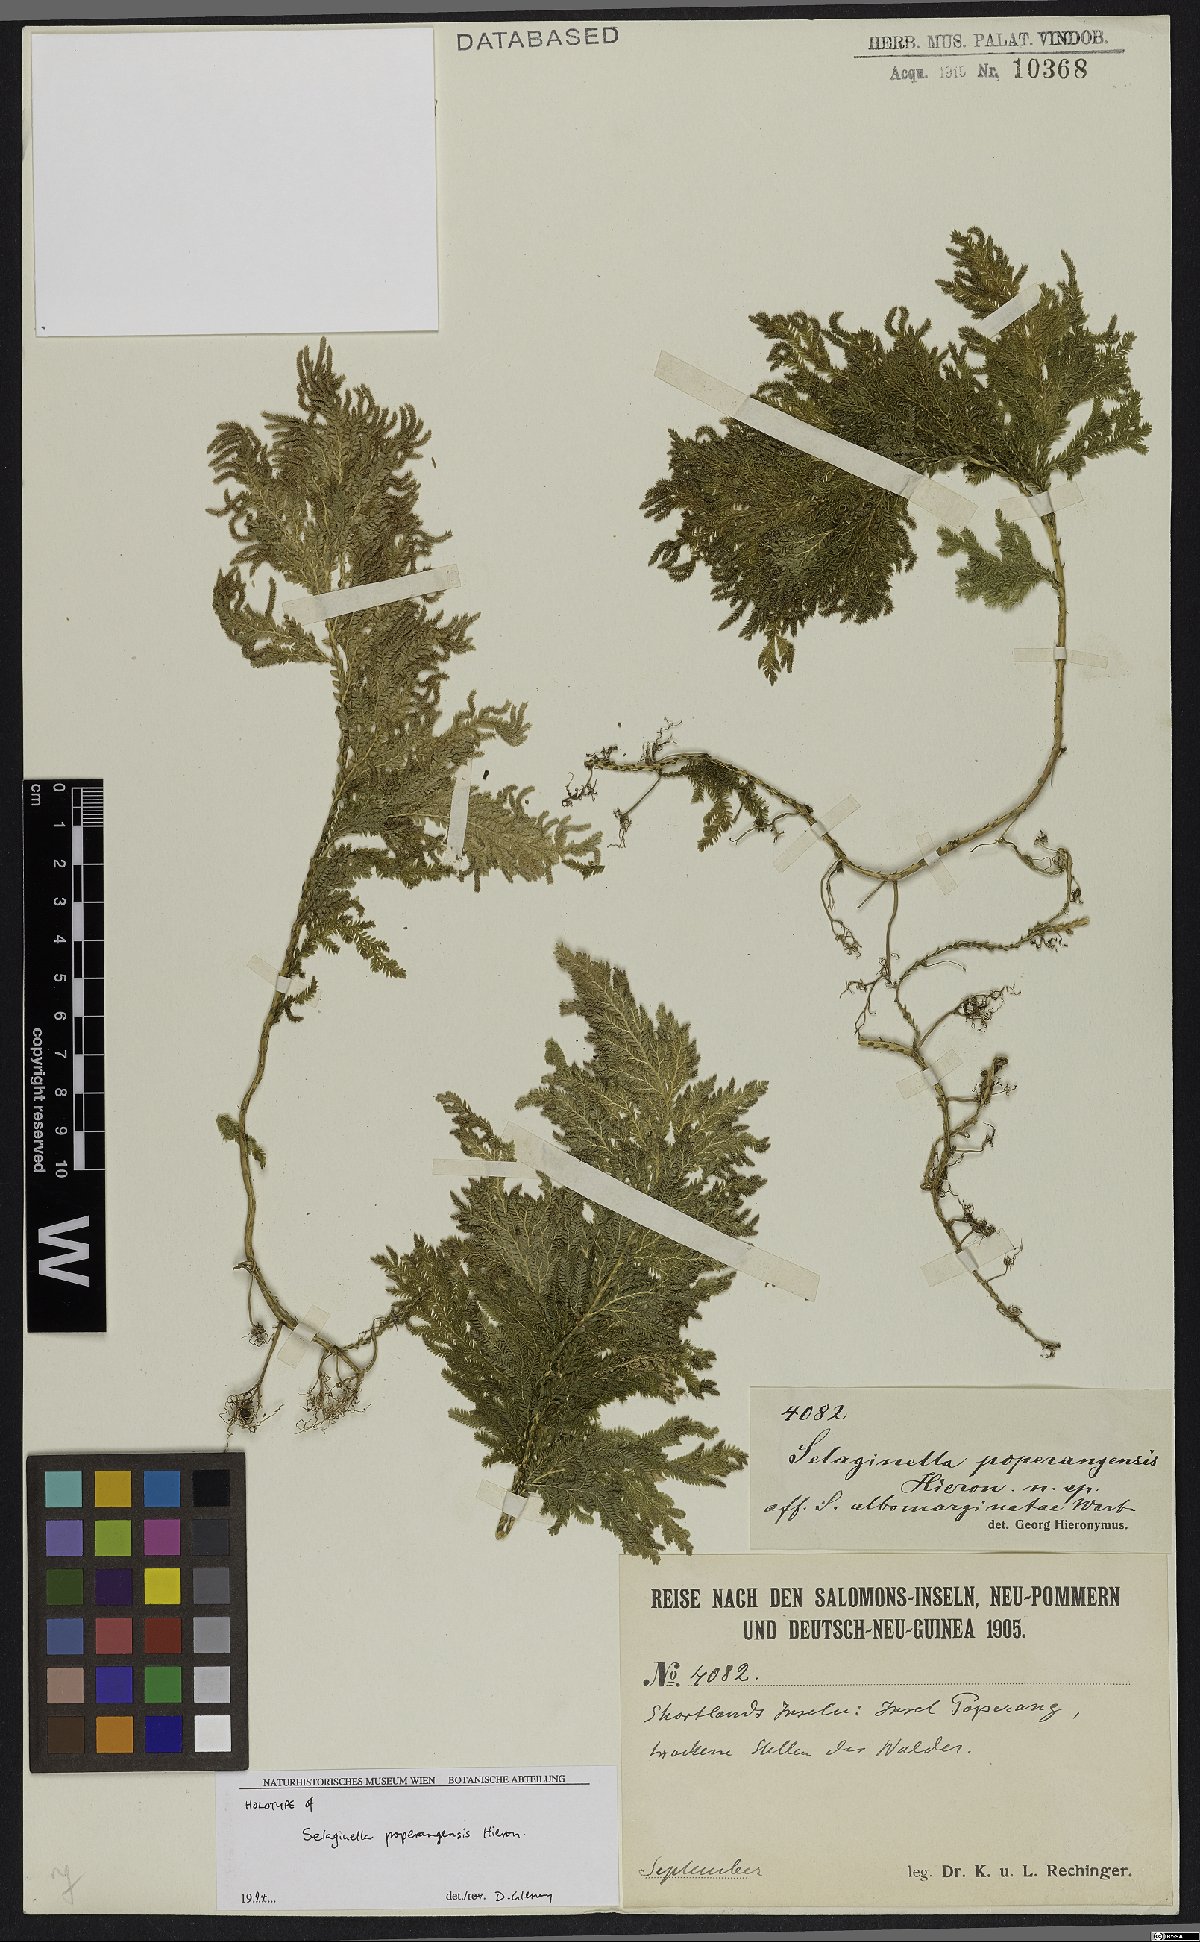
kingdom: Plantae
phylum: Tracheophyta
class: Lycopodiopsida
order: Selaginellales
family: Selaginellaceae
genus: Selaginella
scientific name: Selaginella poperangensis
